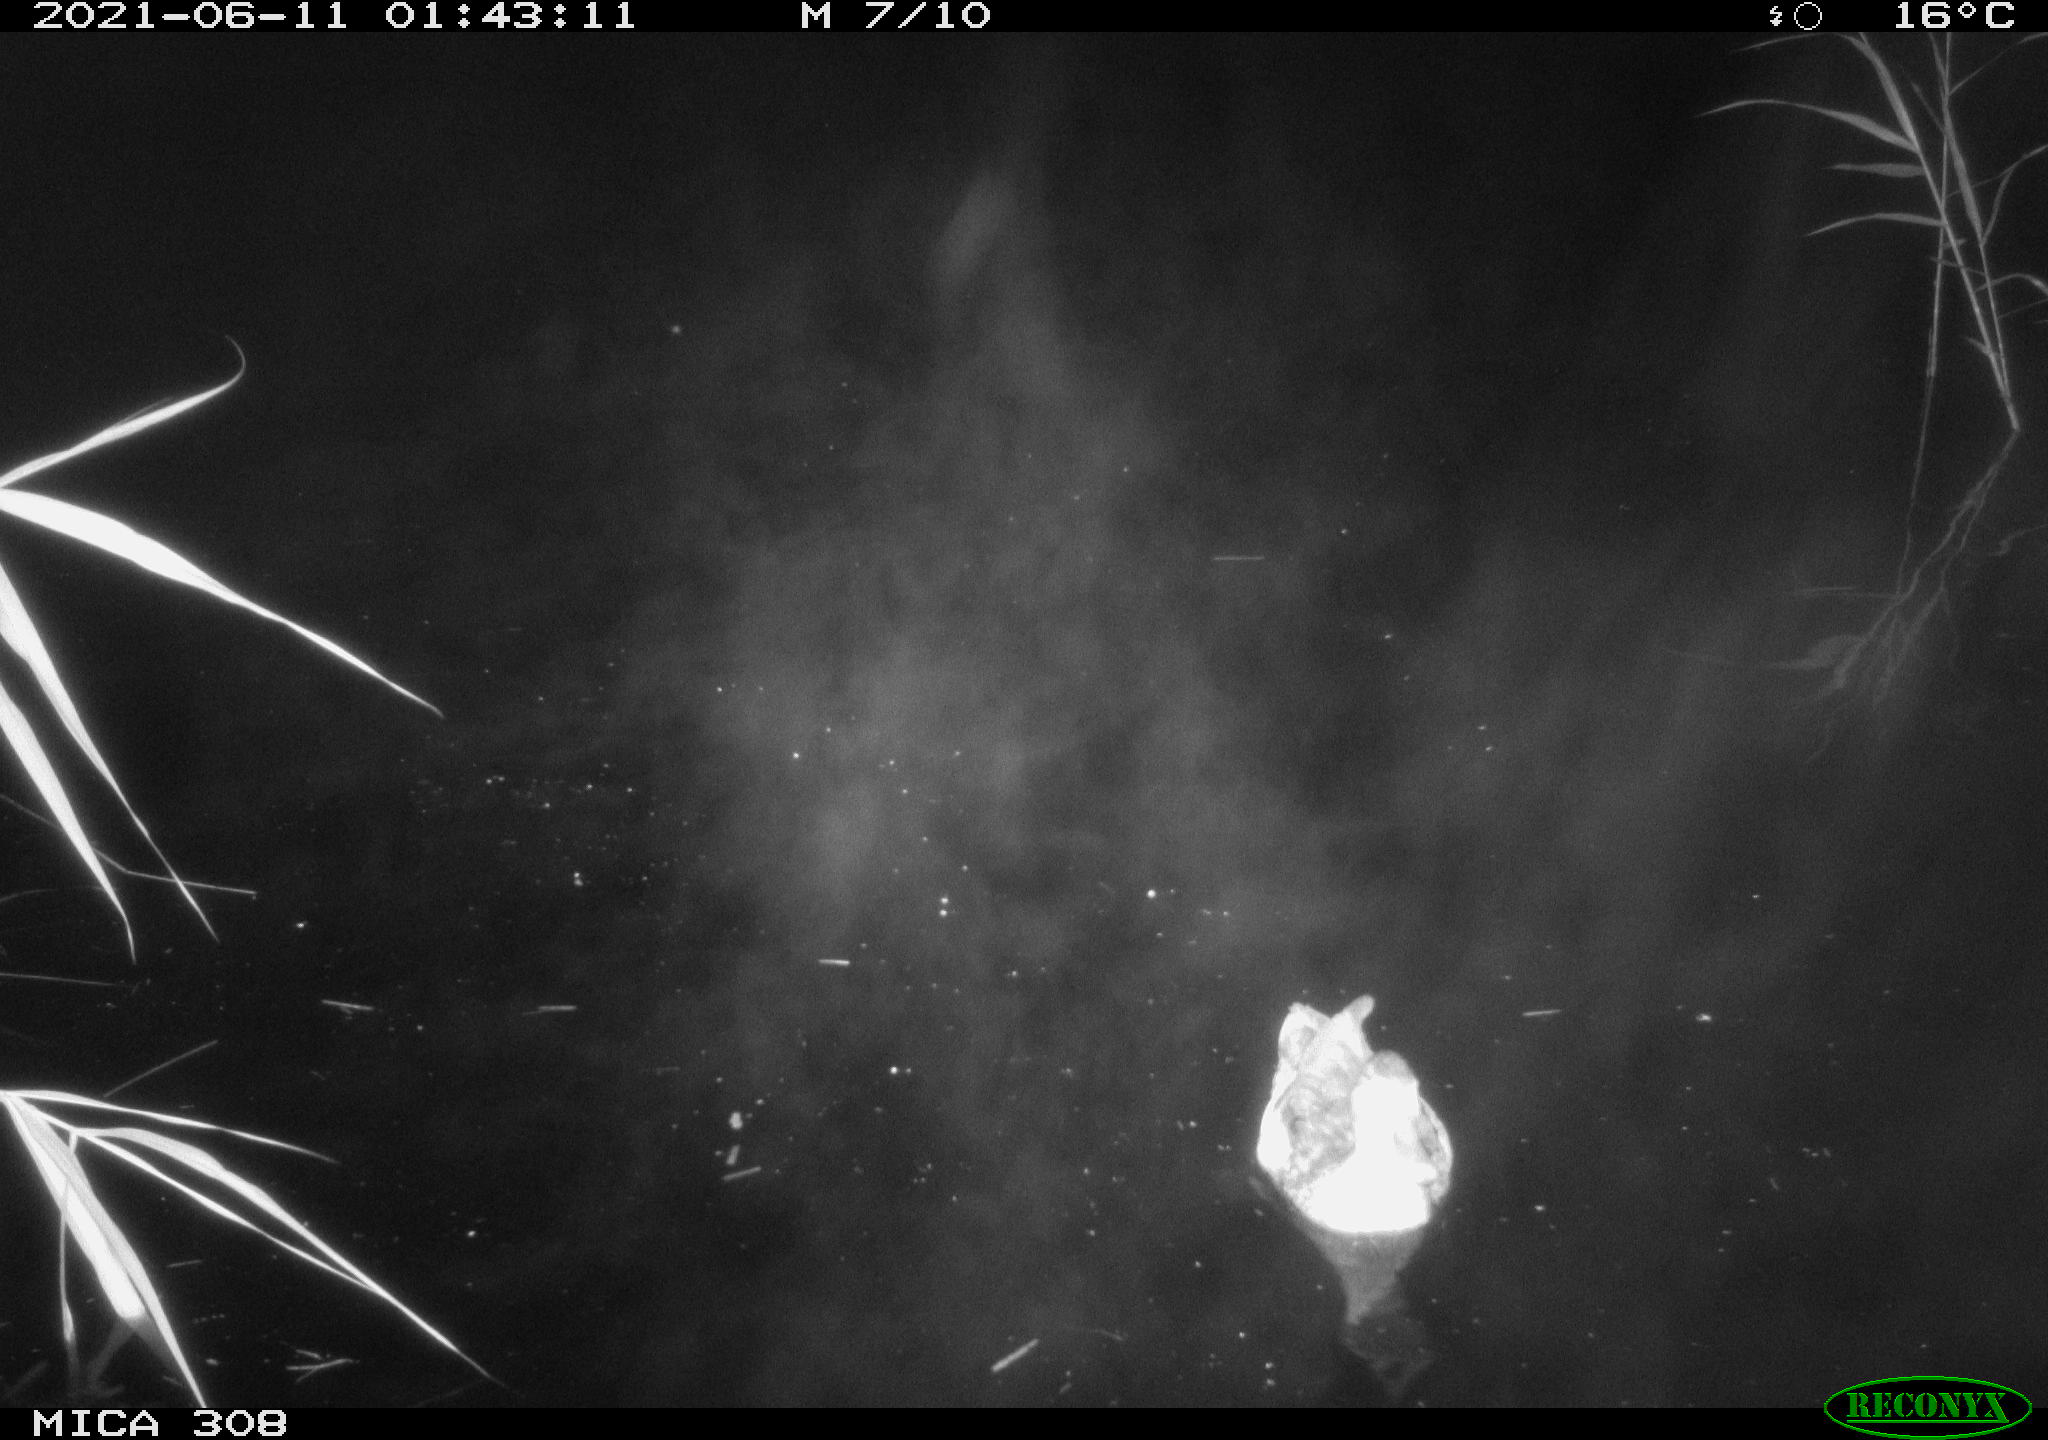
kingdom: Animalia
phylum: Chordata
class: Aves
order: Gruiformes
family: Rallidae
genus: Gallinula
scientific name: Gallinula chloropus
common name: Common moorhen
